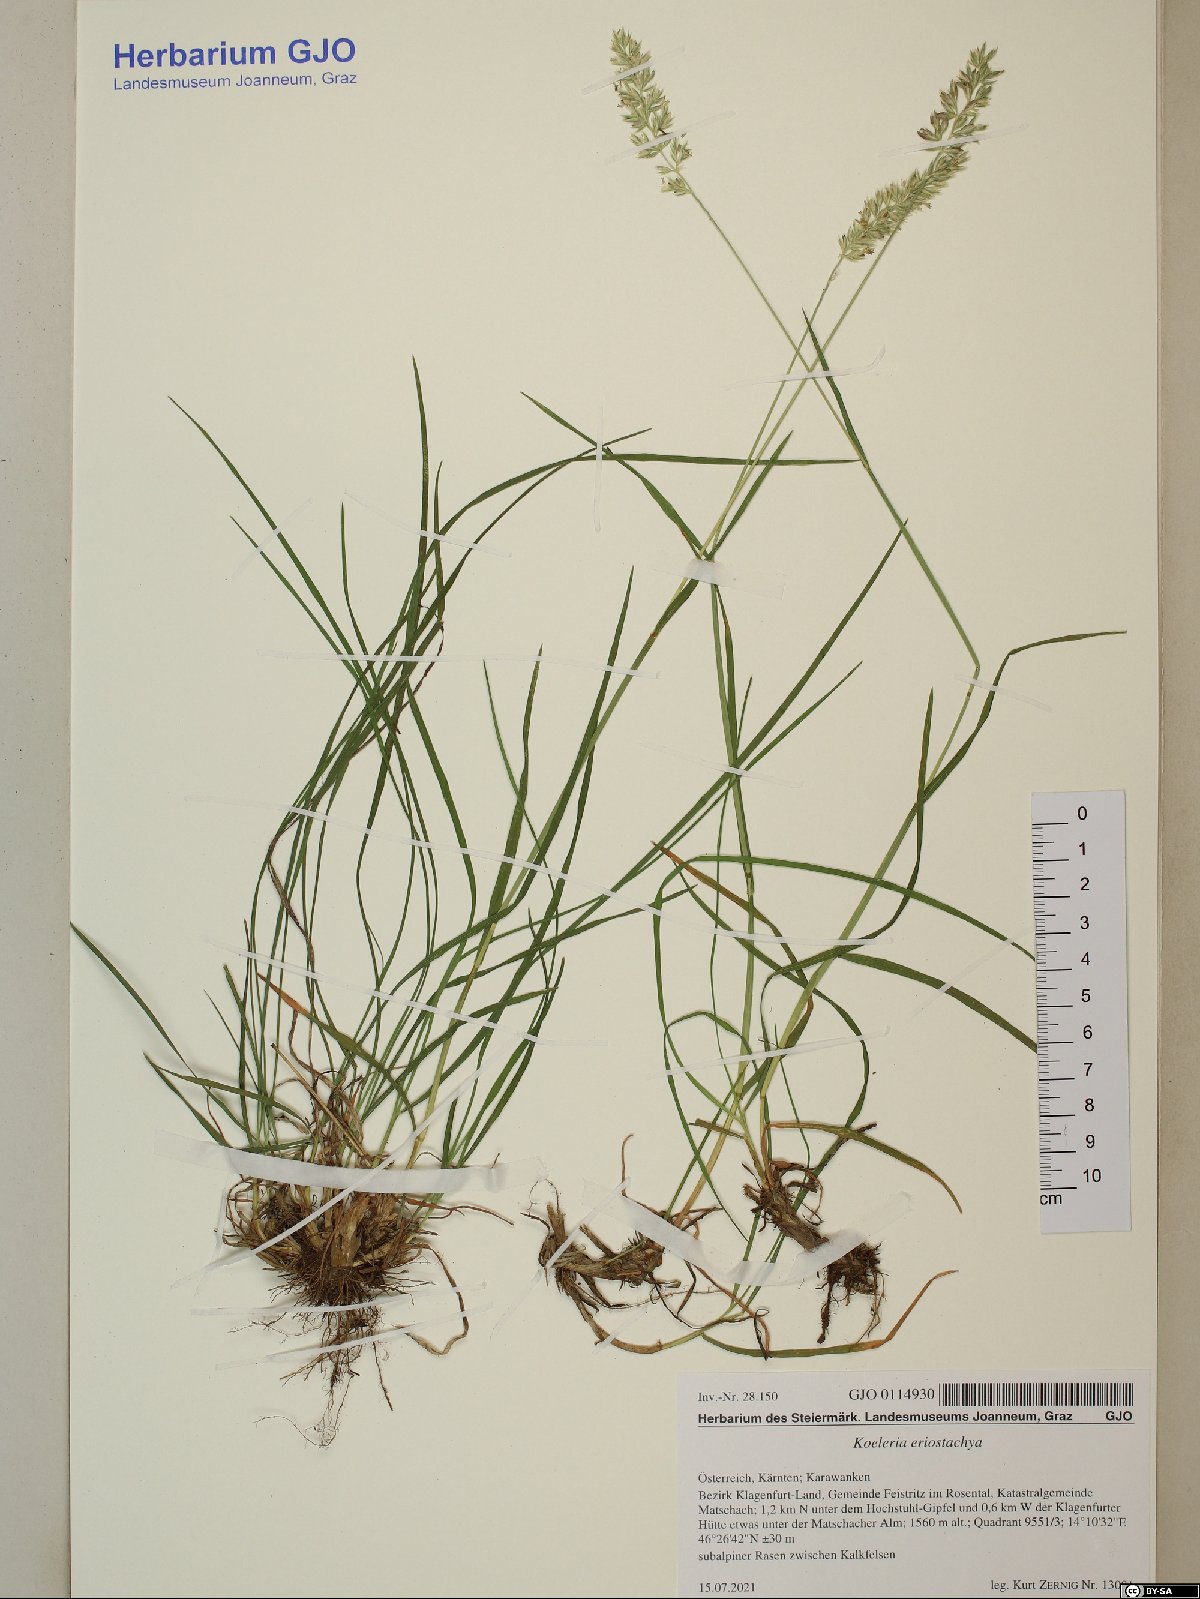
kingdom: Plantae
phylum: Tracheophyta
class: Liliopsida
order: Poales
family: Poaceae
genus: Koeleria
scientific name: Koeleria eriostachya
